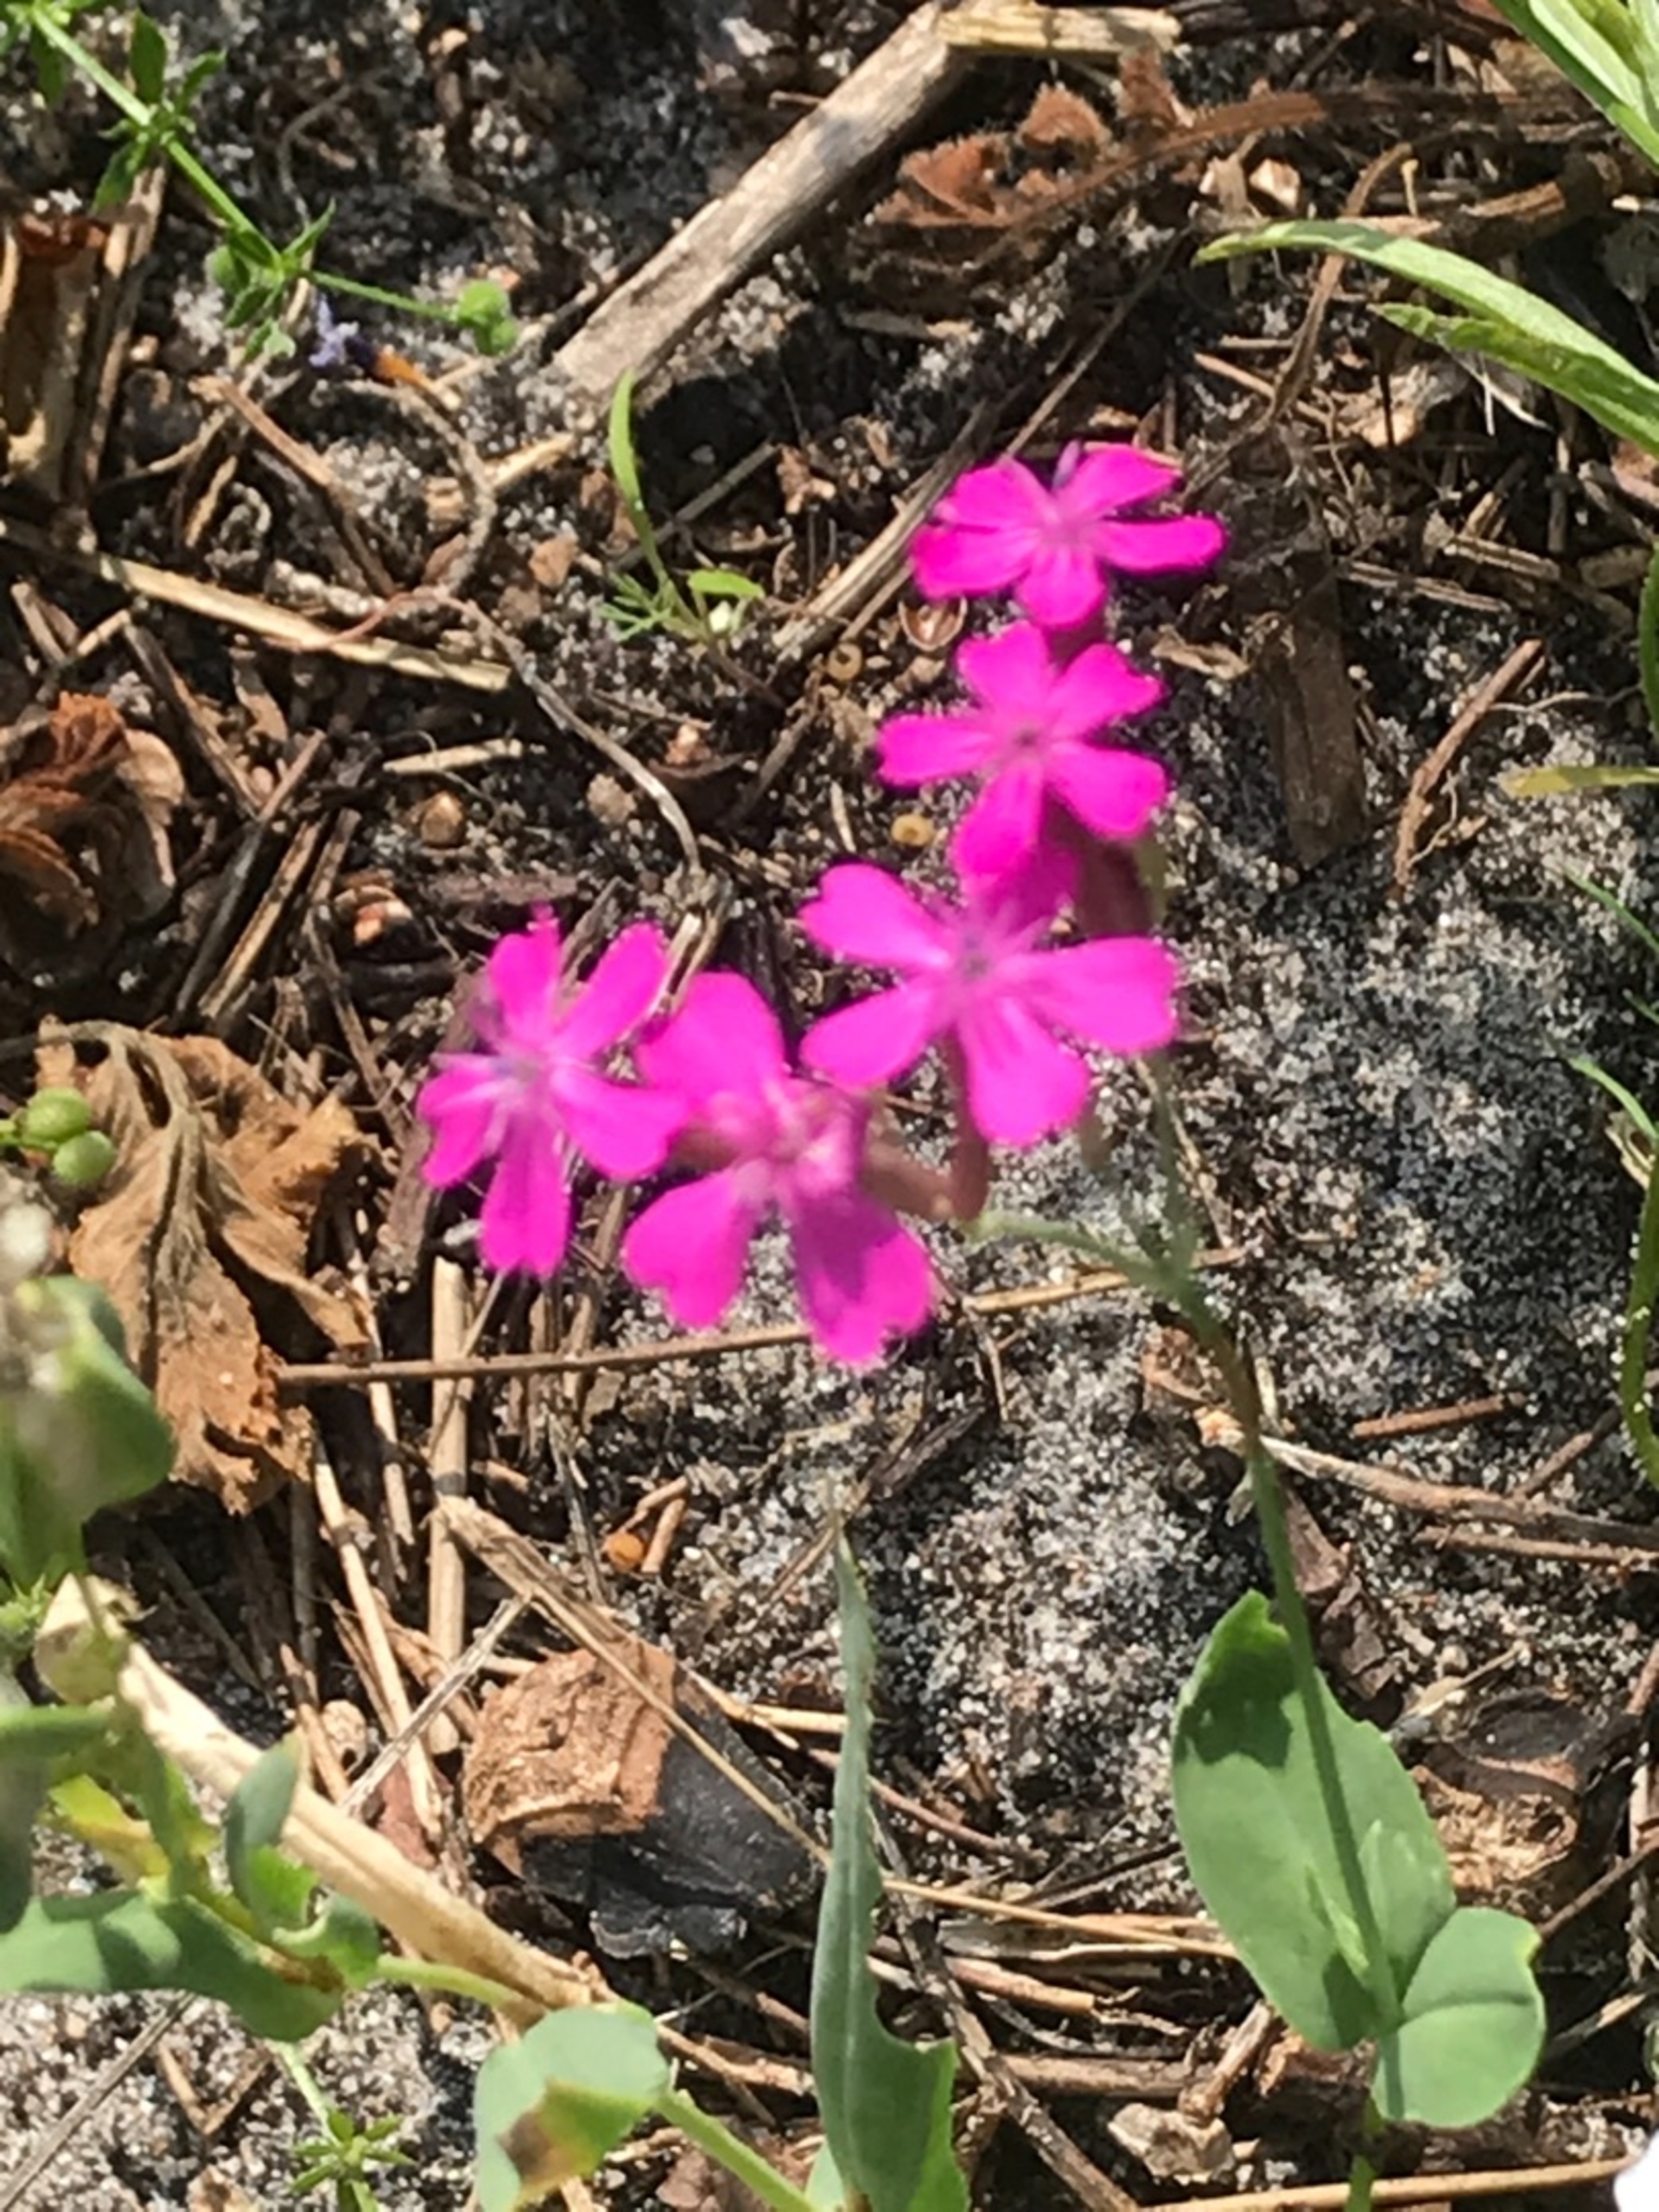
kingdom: Plantae
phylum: Tracheophyta
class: Magnoliopsida
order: Caryophyllales
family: Caryophyllaceae
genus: Atocion
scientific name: Atocion armeria
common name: Knippe-limurt
